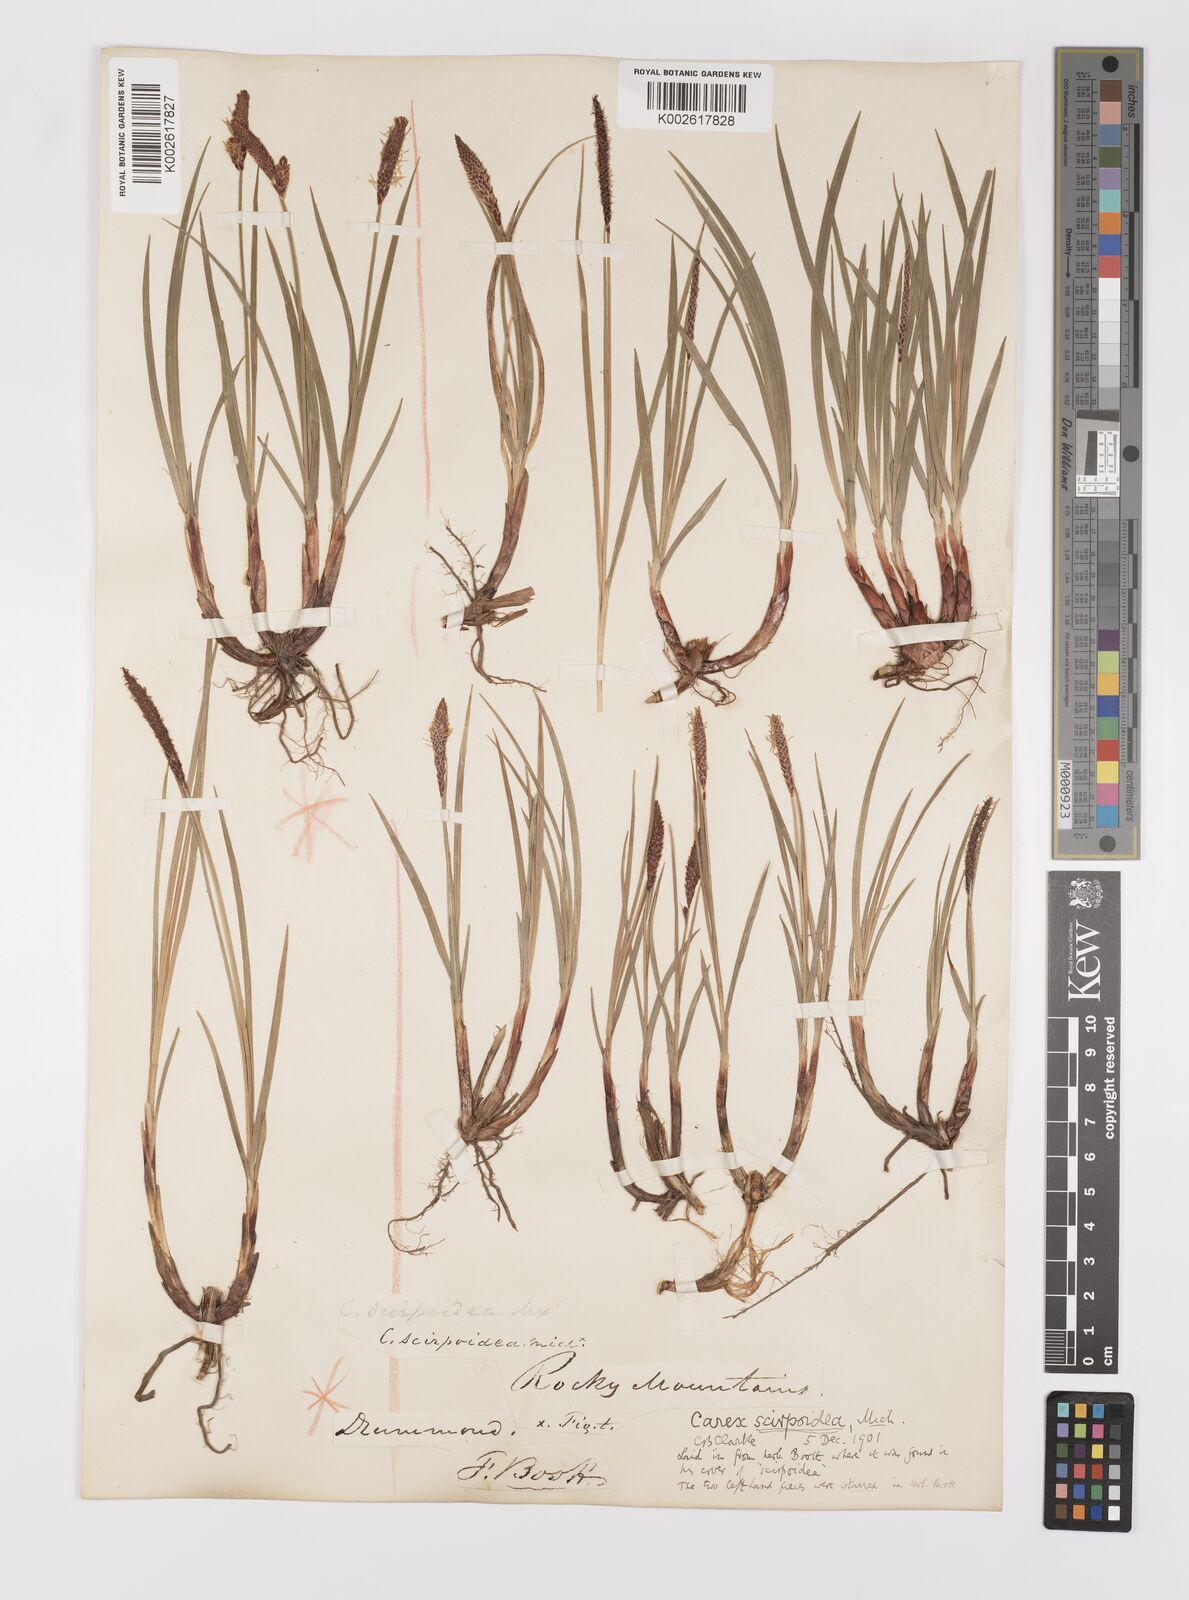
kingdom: Plantae
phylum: Tracheophyta
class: Liliopsida
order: Poales
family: Cyperaceae
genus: Carex
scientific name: Carex scirpoidea
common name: Canada single-spike sedge
